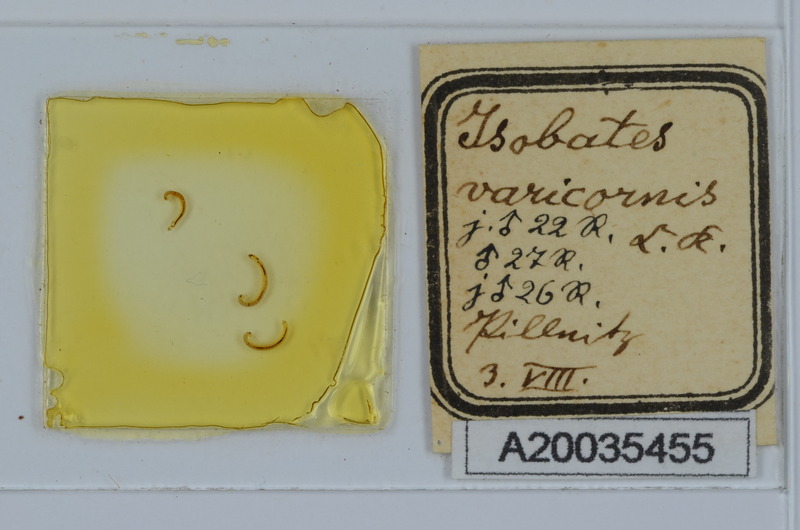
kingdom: Animalia
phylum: Arthropoda
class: Diplopoda
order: Julida
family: Nemasomatidae
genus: Isobates
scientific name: Isobates varicornis
